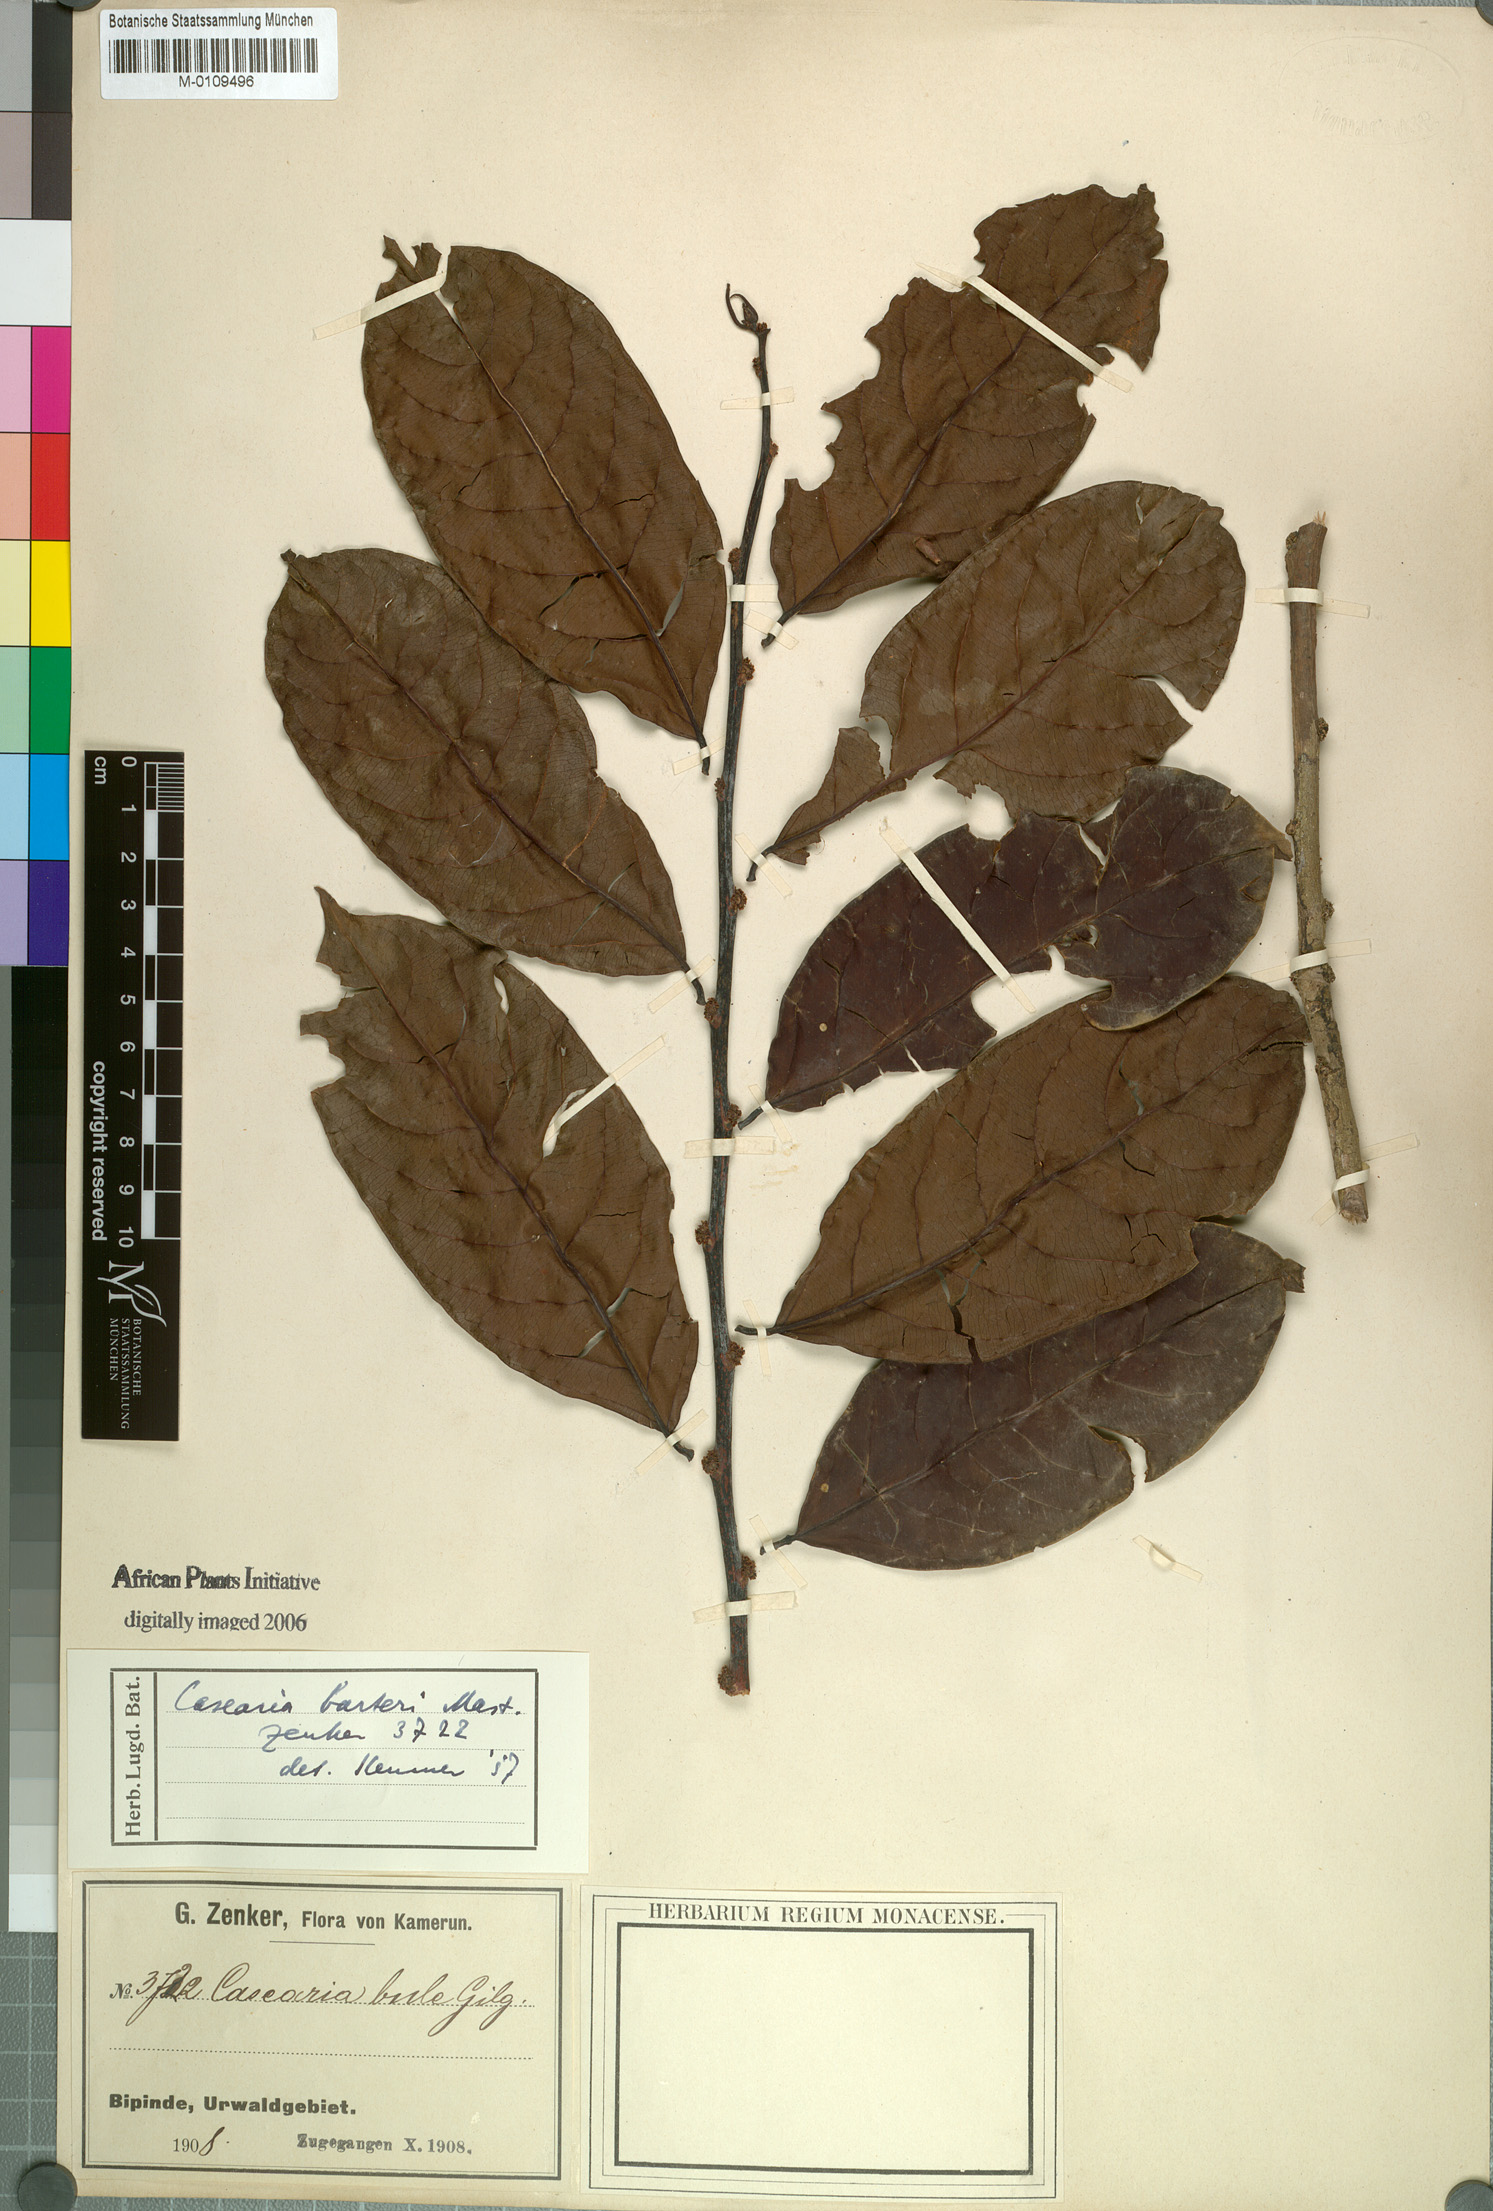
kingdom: Plantae
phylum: Tracheophyta
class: Magnoliopsida
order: Malpighiales
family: Salicaceae
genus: Casearia
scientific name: Casearia barteri
